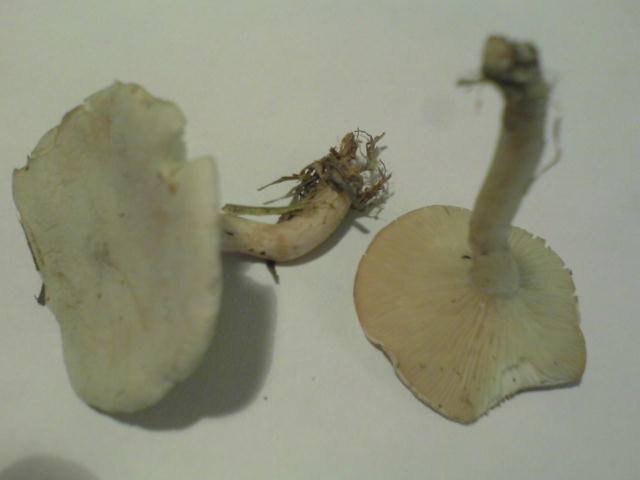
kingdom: Fungi
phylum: Basidiomycota
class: Agaricomycetes
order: Agaricales
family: Tricholomataceae
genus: Clitocybe
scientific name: Clitocybe rivulosa
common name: eng-tragthat
